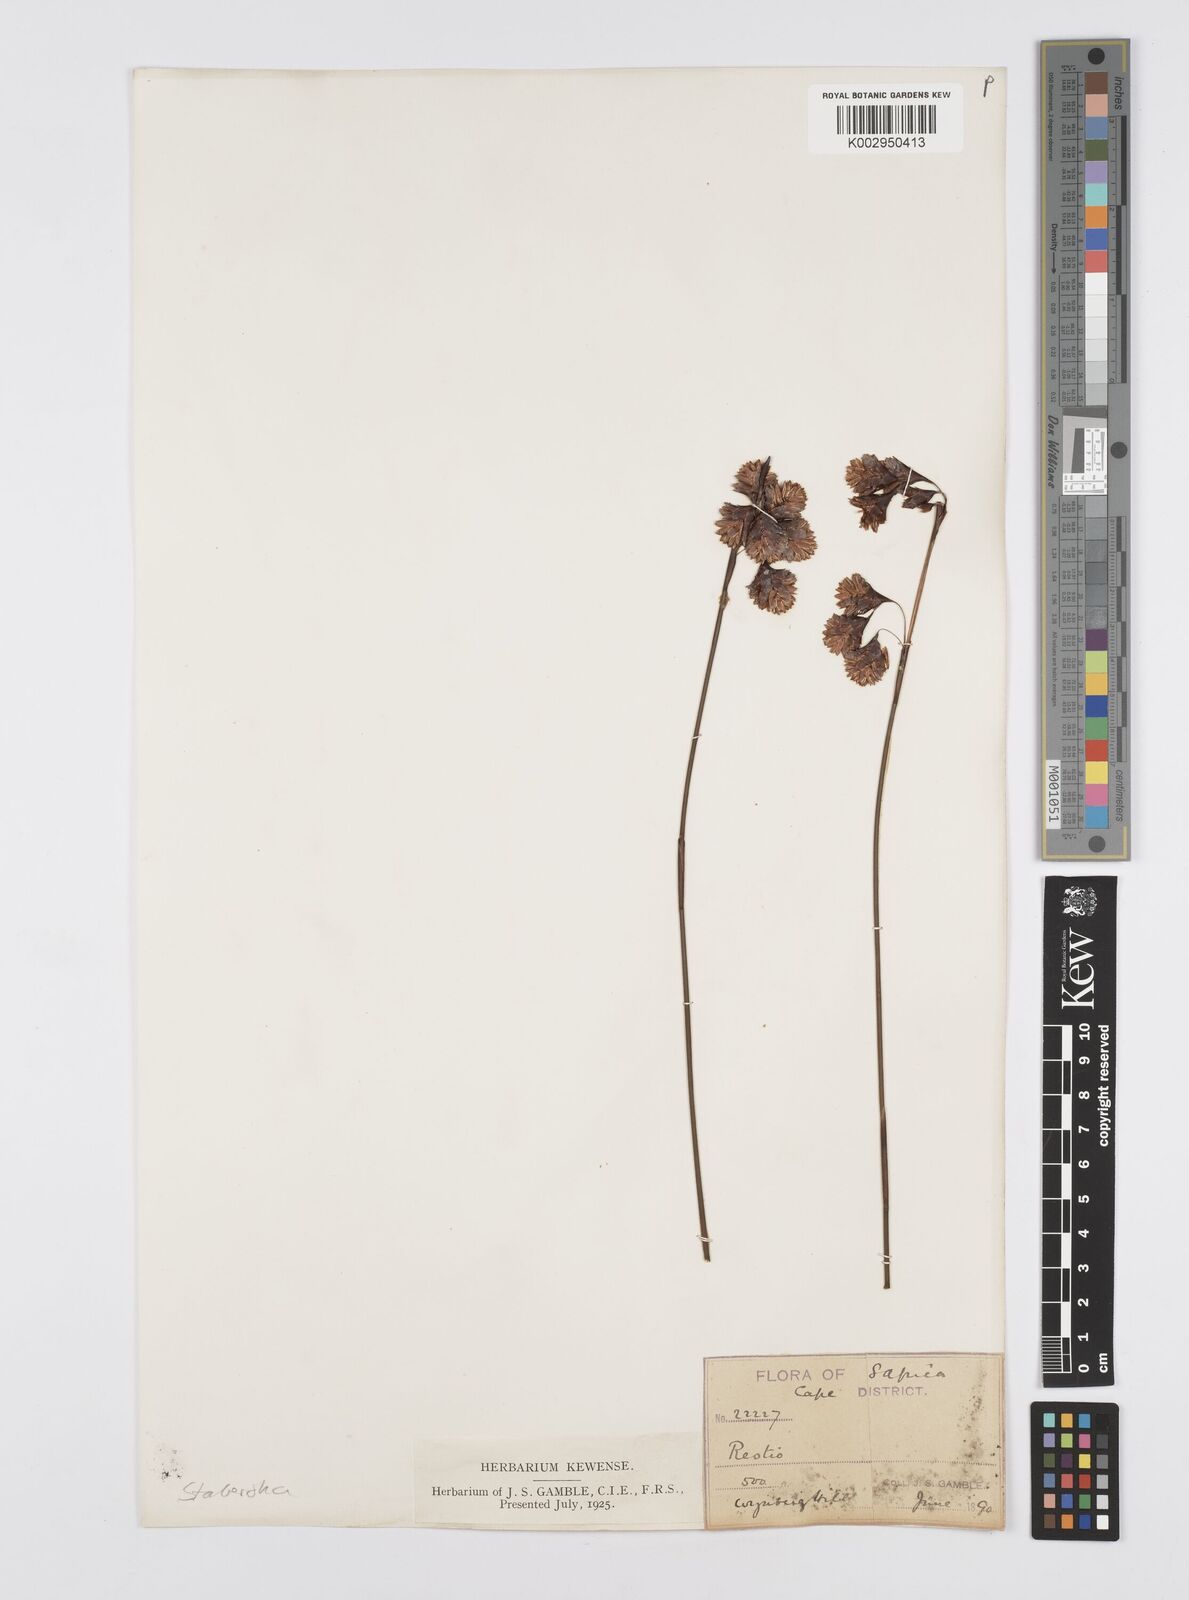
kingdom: Plantae
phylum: Tracheophyta
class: Liliopsida
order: Poales
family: Restionaceae
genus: Staberoha
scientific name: Staberoha
